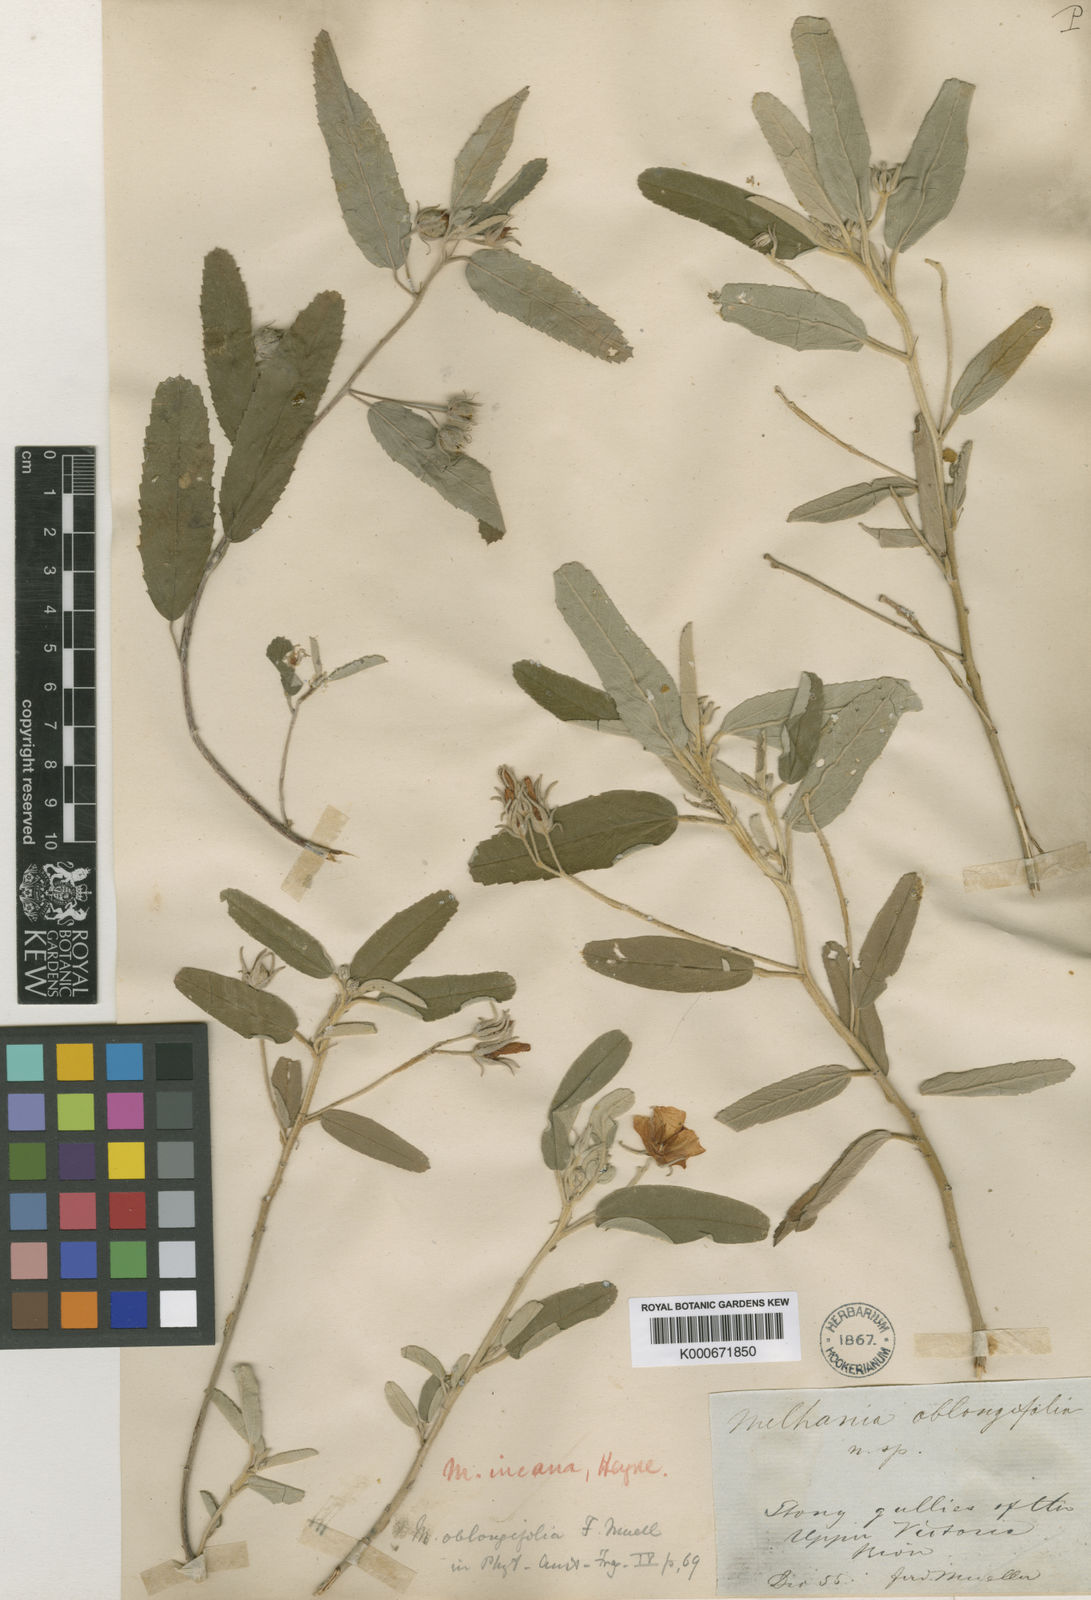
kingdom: Plantae
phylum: Tracheophyta
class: Magnoliopsida
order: Malvales
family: Malvaceae
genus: Melhania
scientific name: Melhania oblongifolia
